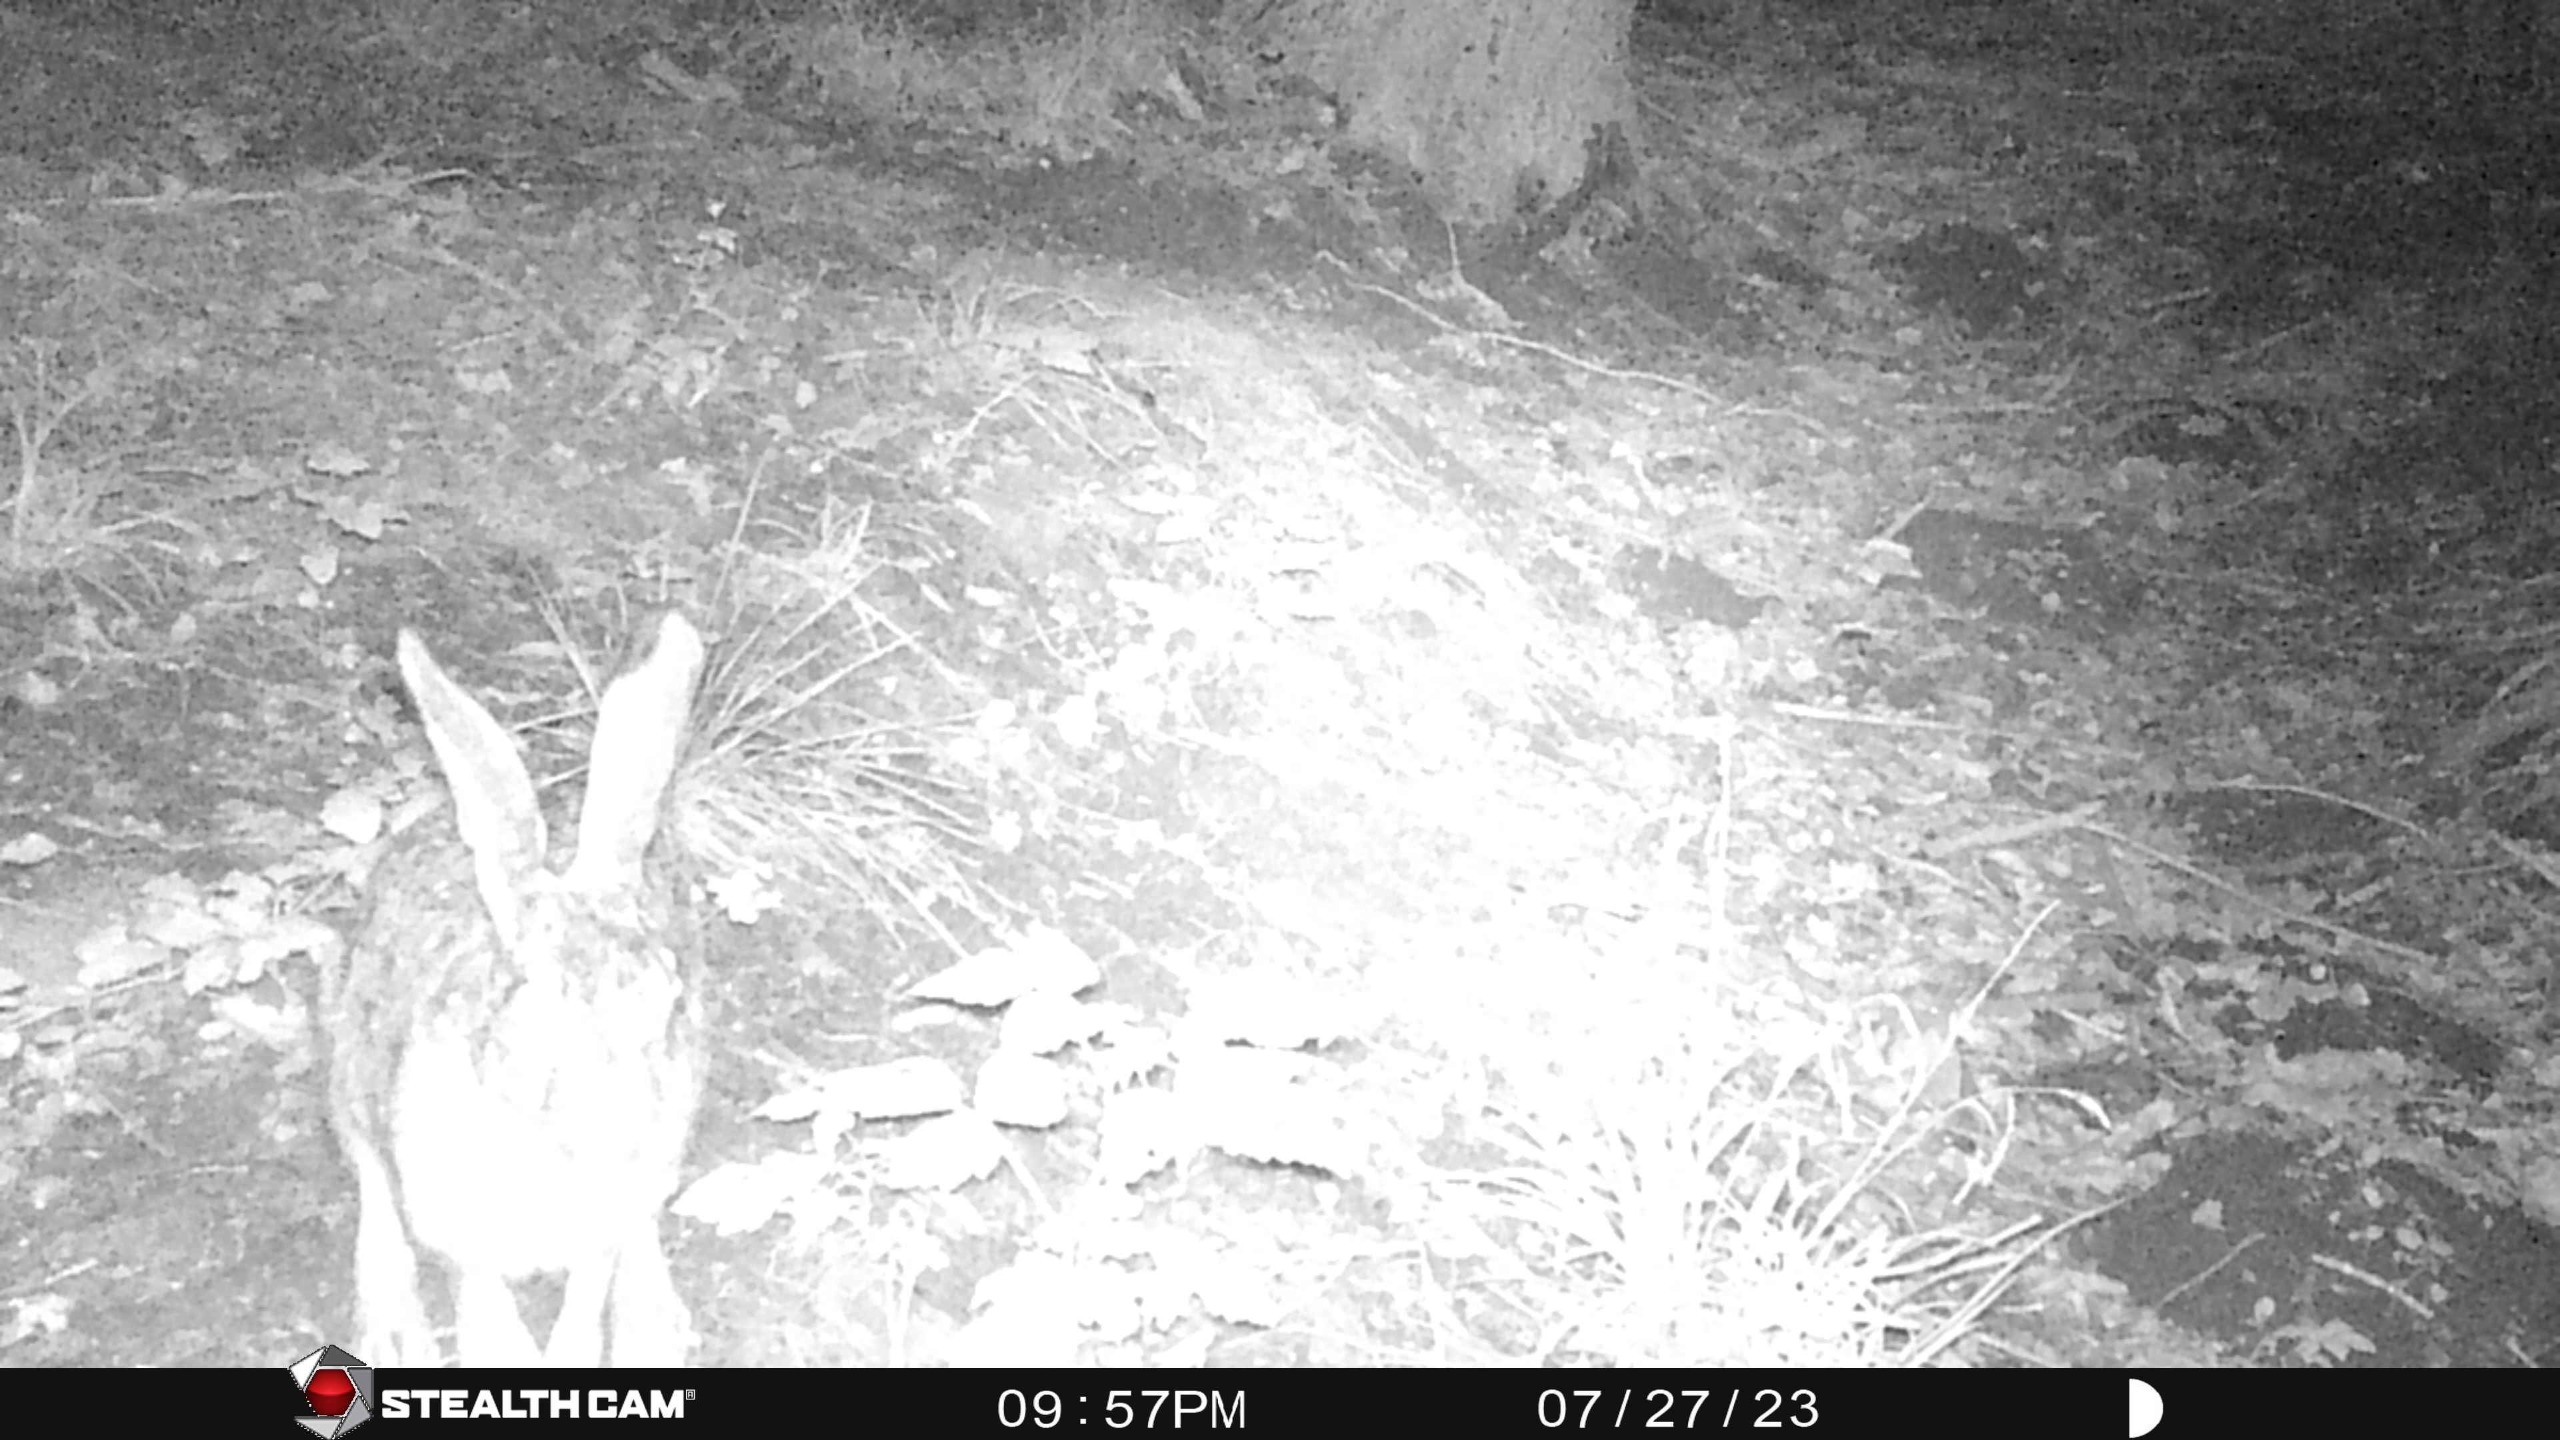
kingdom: Animalia
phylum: Chordata
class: Mammalia
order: Lagomorpha
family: Leporidae
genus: Lepus
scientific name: Lepus europaeus
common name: Hare
